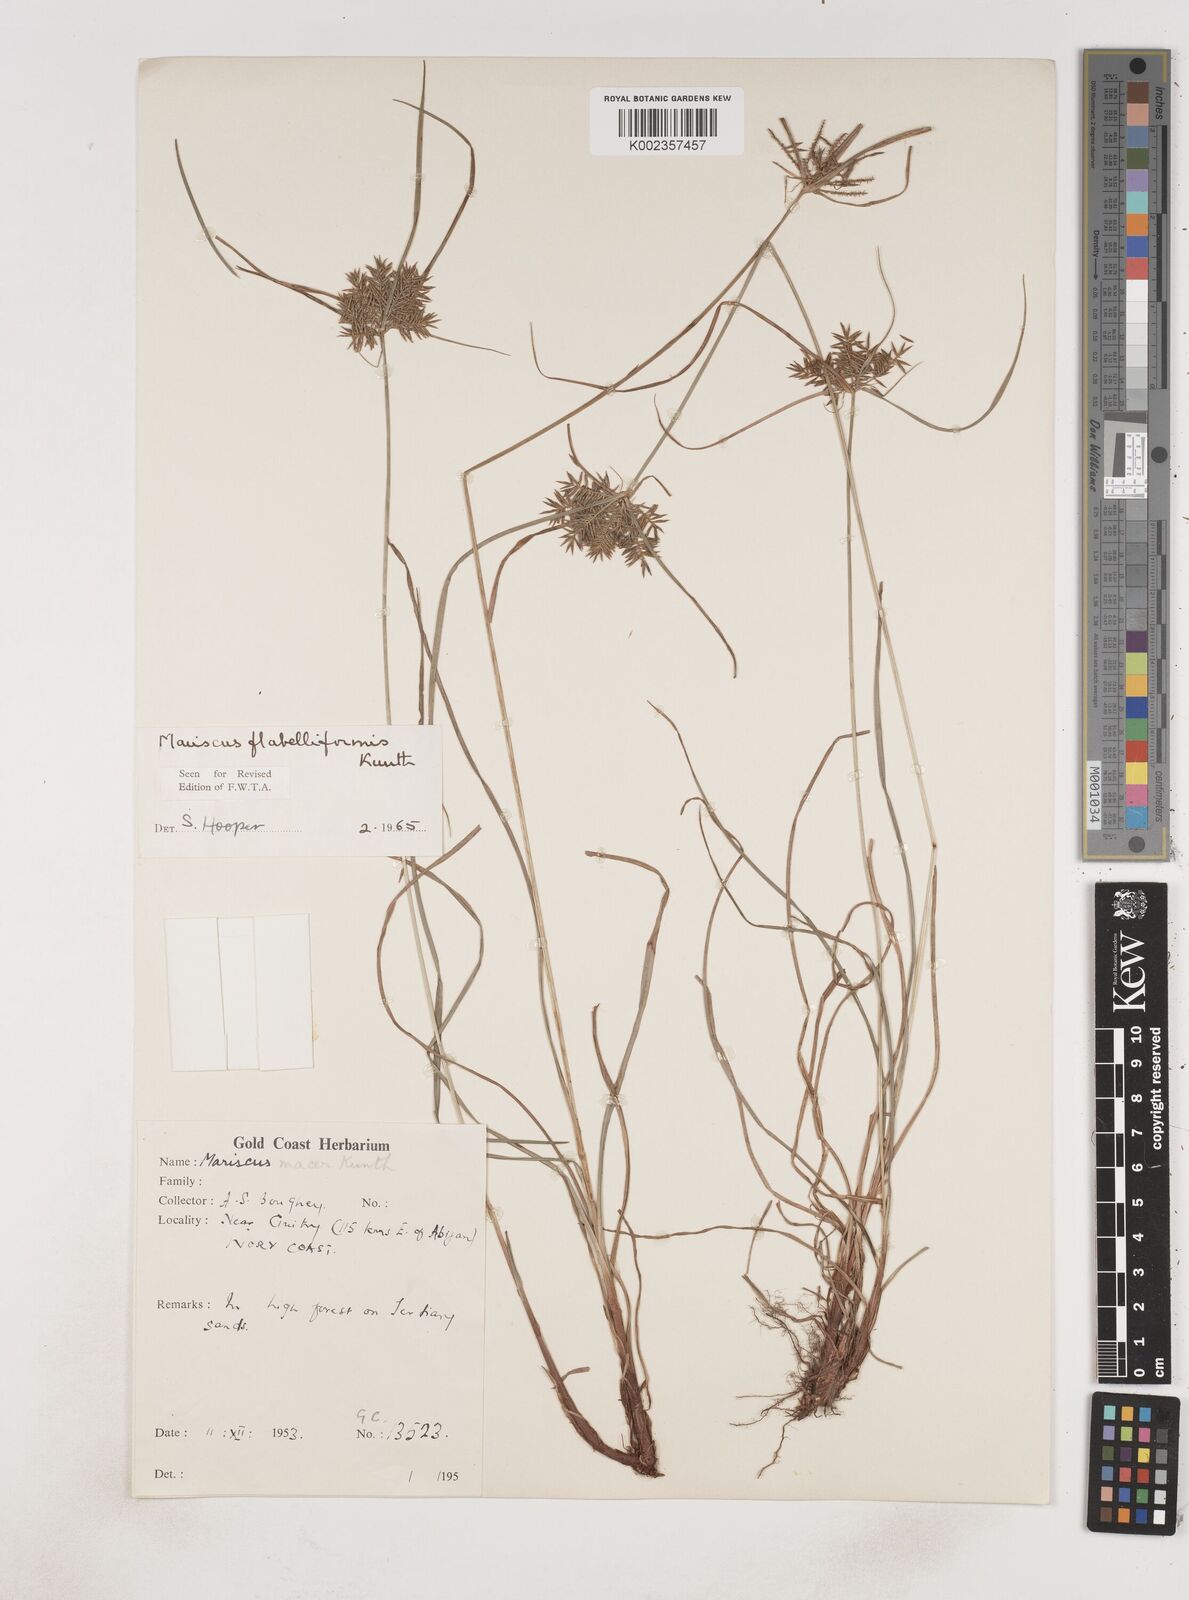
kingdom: Plantae
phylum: Tracheophyta
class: Liliopsida
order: Poales
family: Cyperaceae
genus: Cyperus
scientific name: Cyperus tenuis
